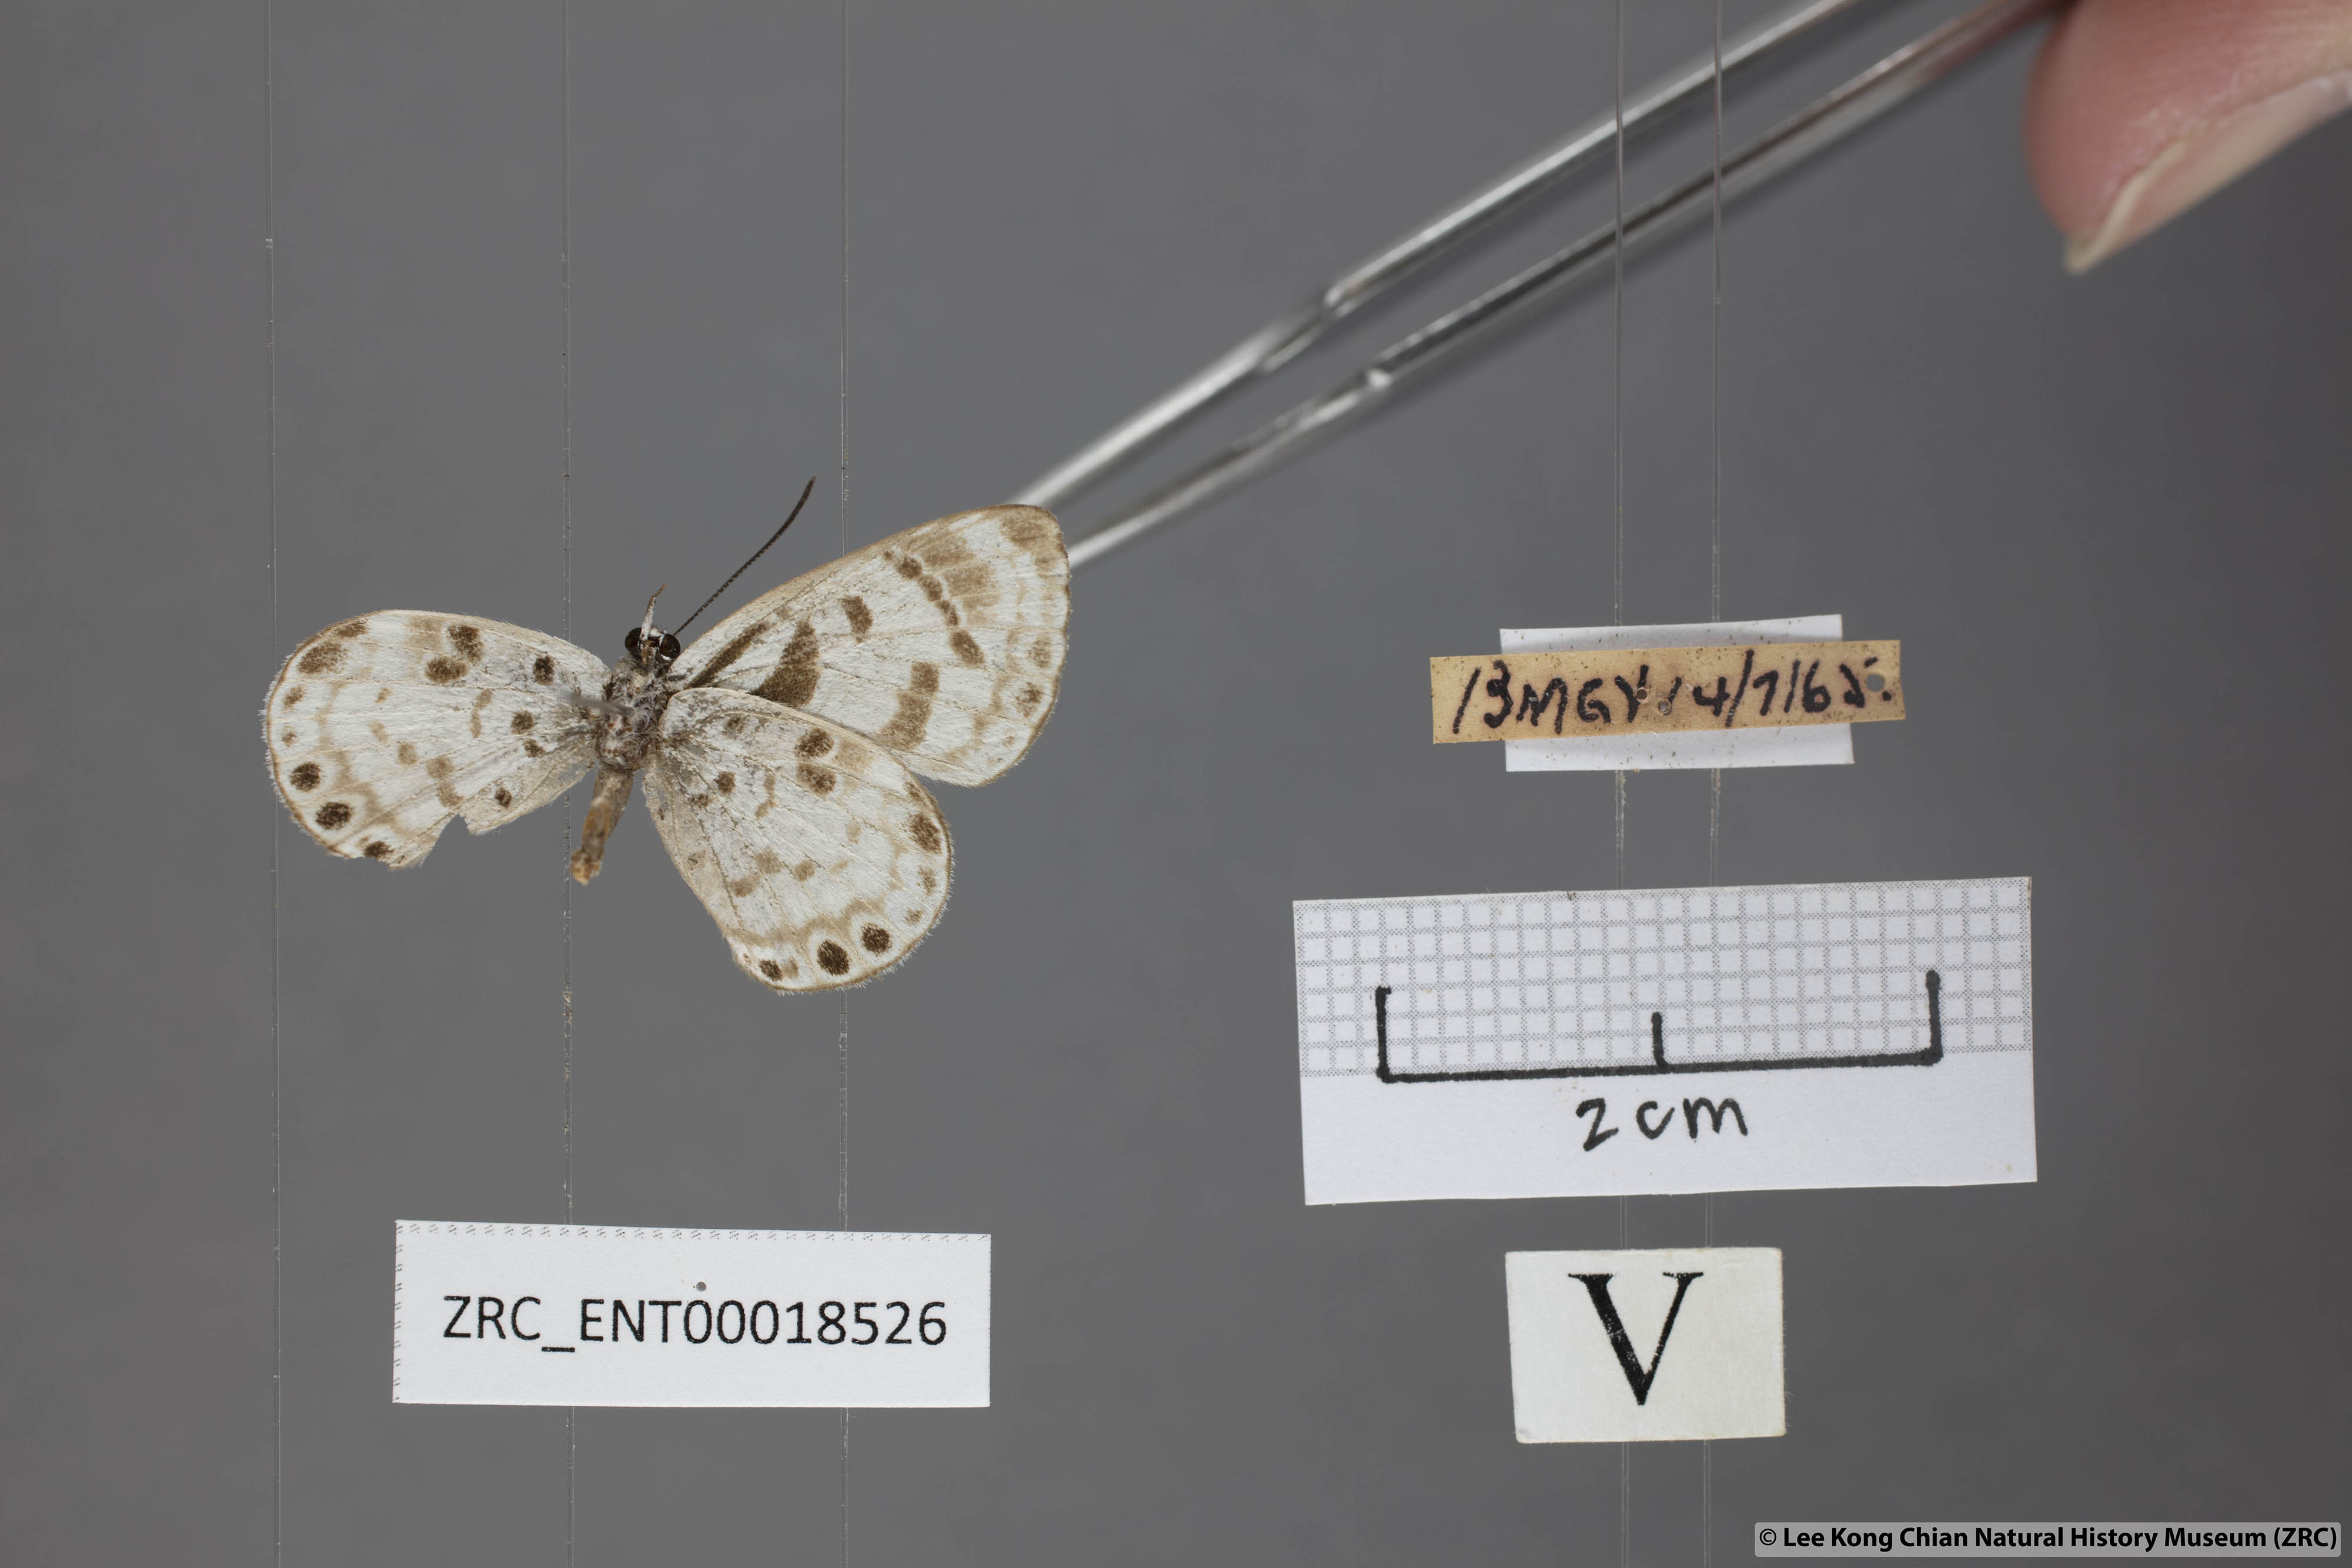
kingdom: Animalia
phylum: Arthropoda
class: Insecta
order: Lepidoptera
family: Lycaenidae
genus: Niphanda
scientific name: Niphanda cymbia
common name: Small pointed pierrot
